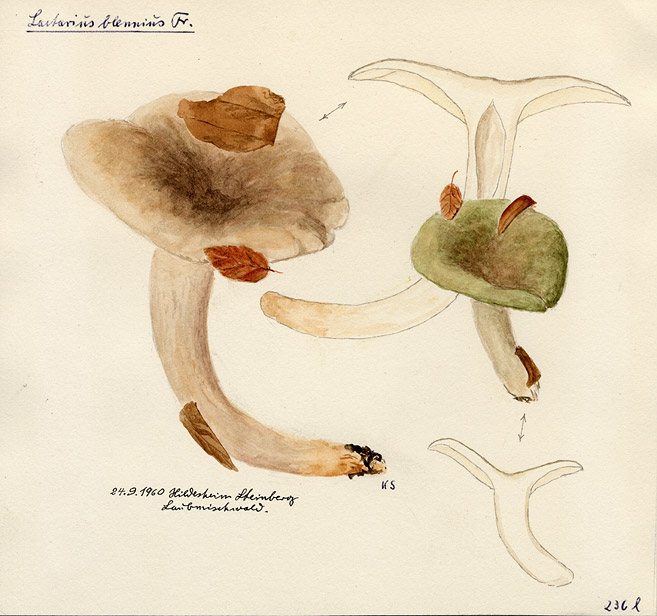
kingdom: Fungi
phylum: Basidiomycota
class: Agaricomycetes
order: Russulales
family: Russulaceae
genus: Lactarius
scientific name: Lactarius blennius
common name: Beech milkcap
